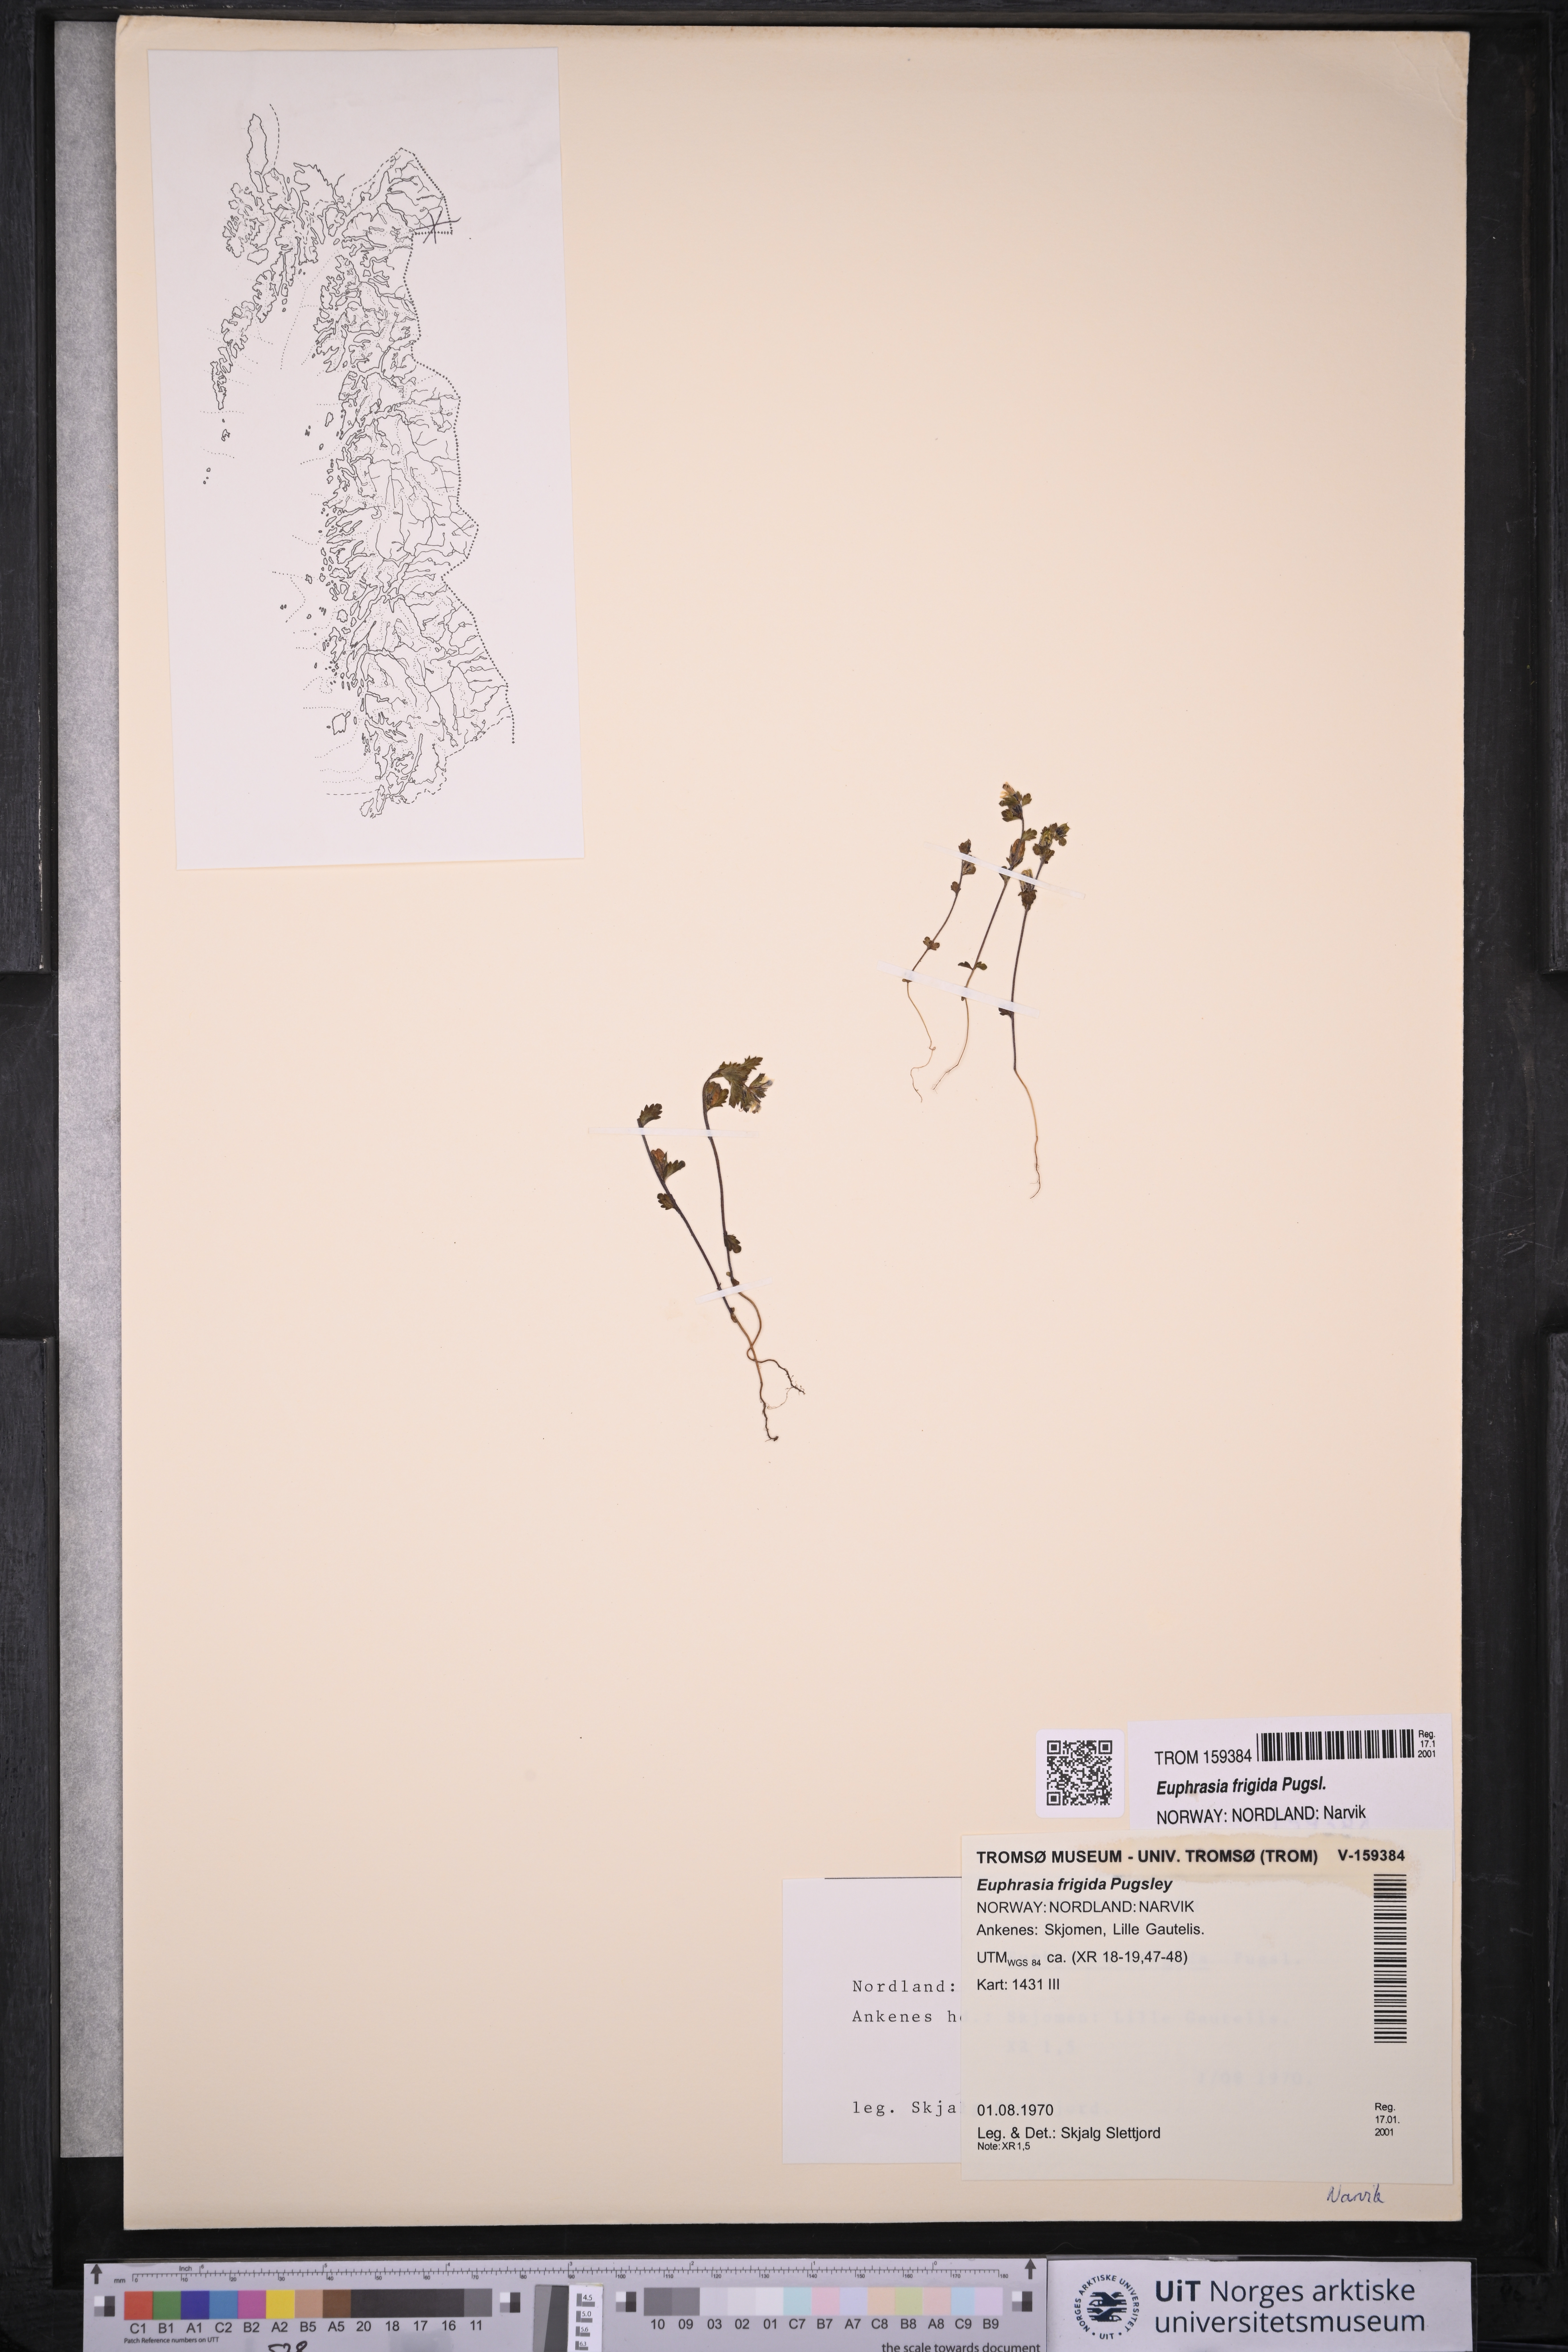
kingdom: Plantae
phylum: Tracheophyta
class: Magnoliopsida
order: Lamiales
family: Orobanchaceae
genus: Euphrasia
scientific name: Euphrasia frigida
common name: An eyebright
